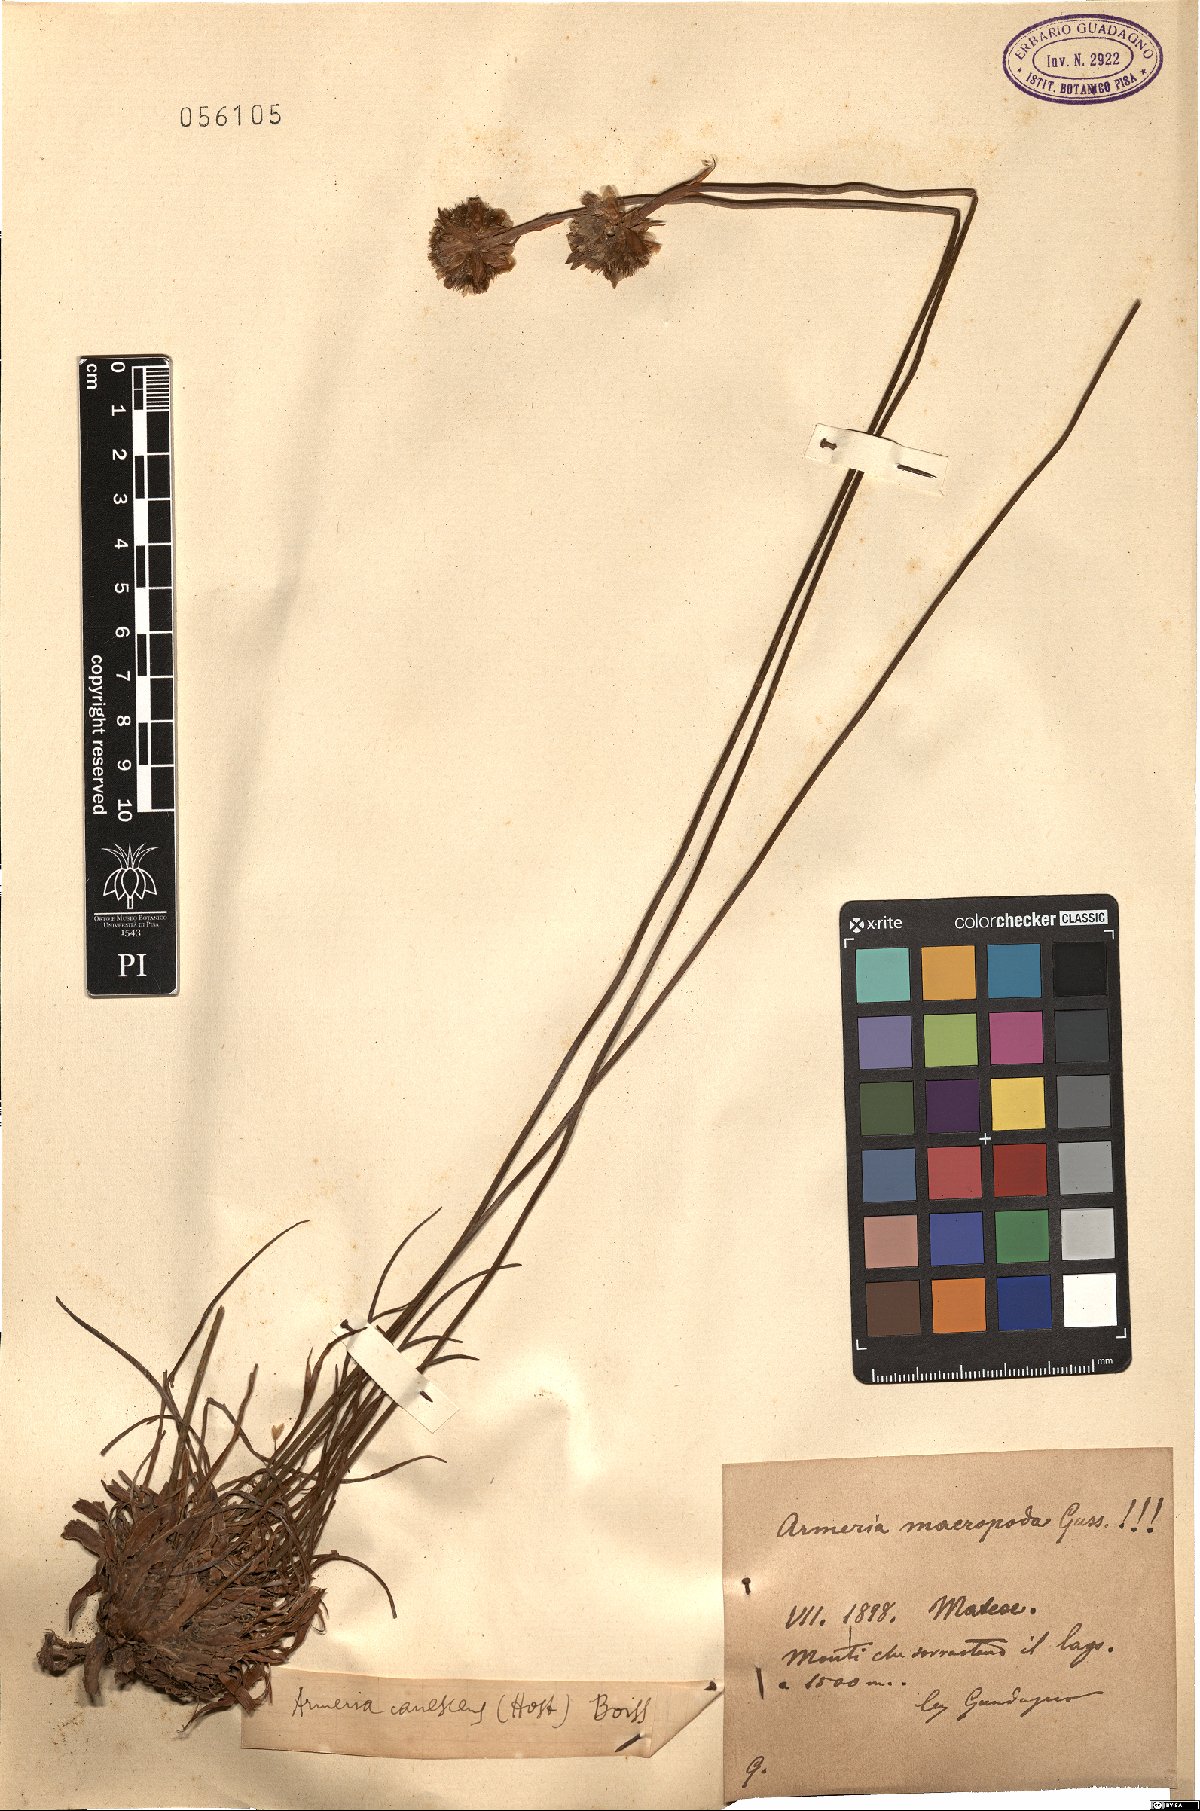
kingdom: Plantae
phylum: Tracheophyta
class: Magnoliopsida
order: Caryophyllales
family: Plumbaginaceae
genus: Armeria
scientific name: Armeria macropoda
